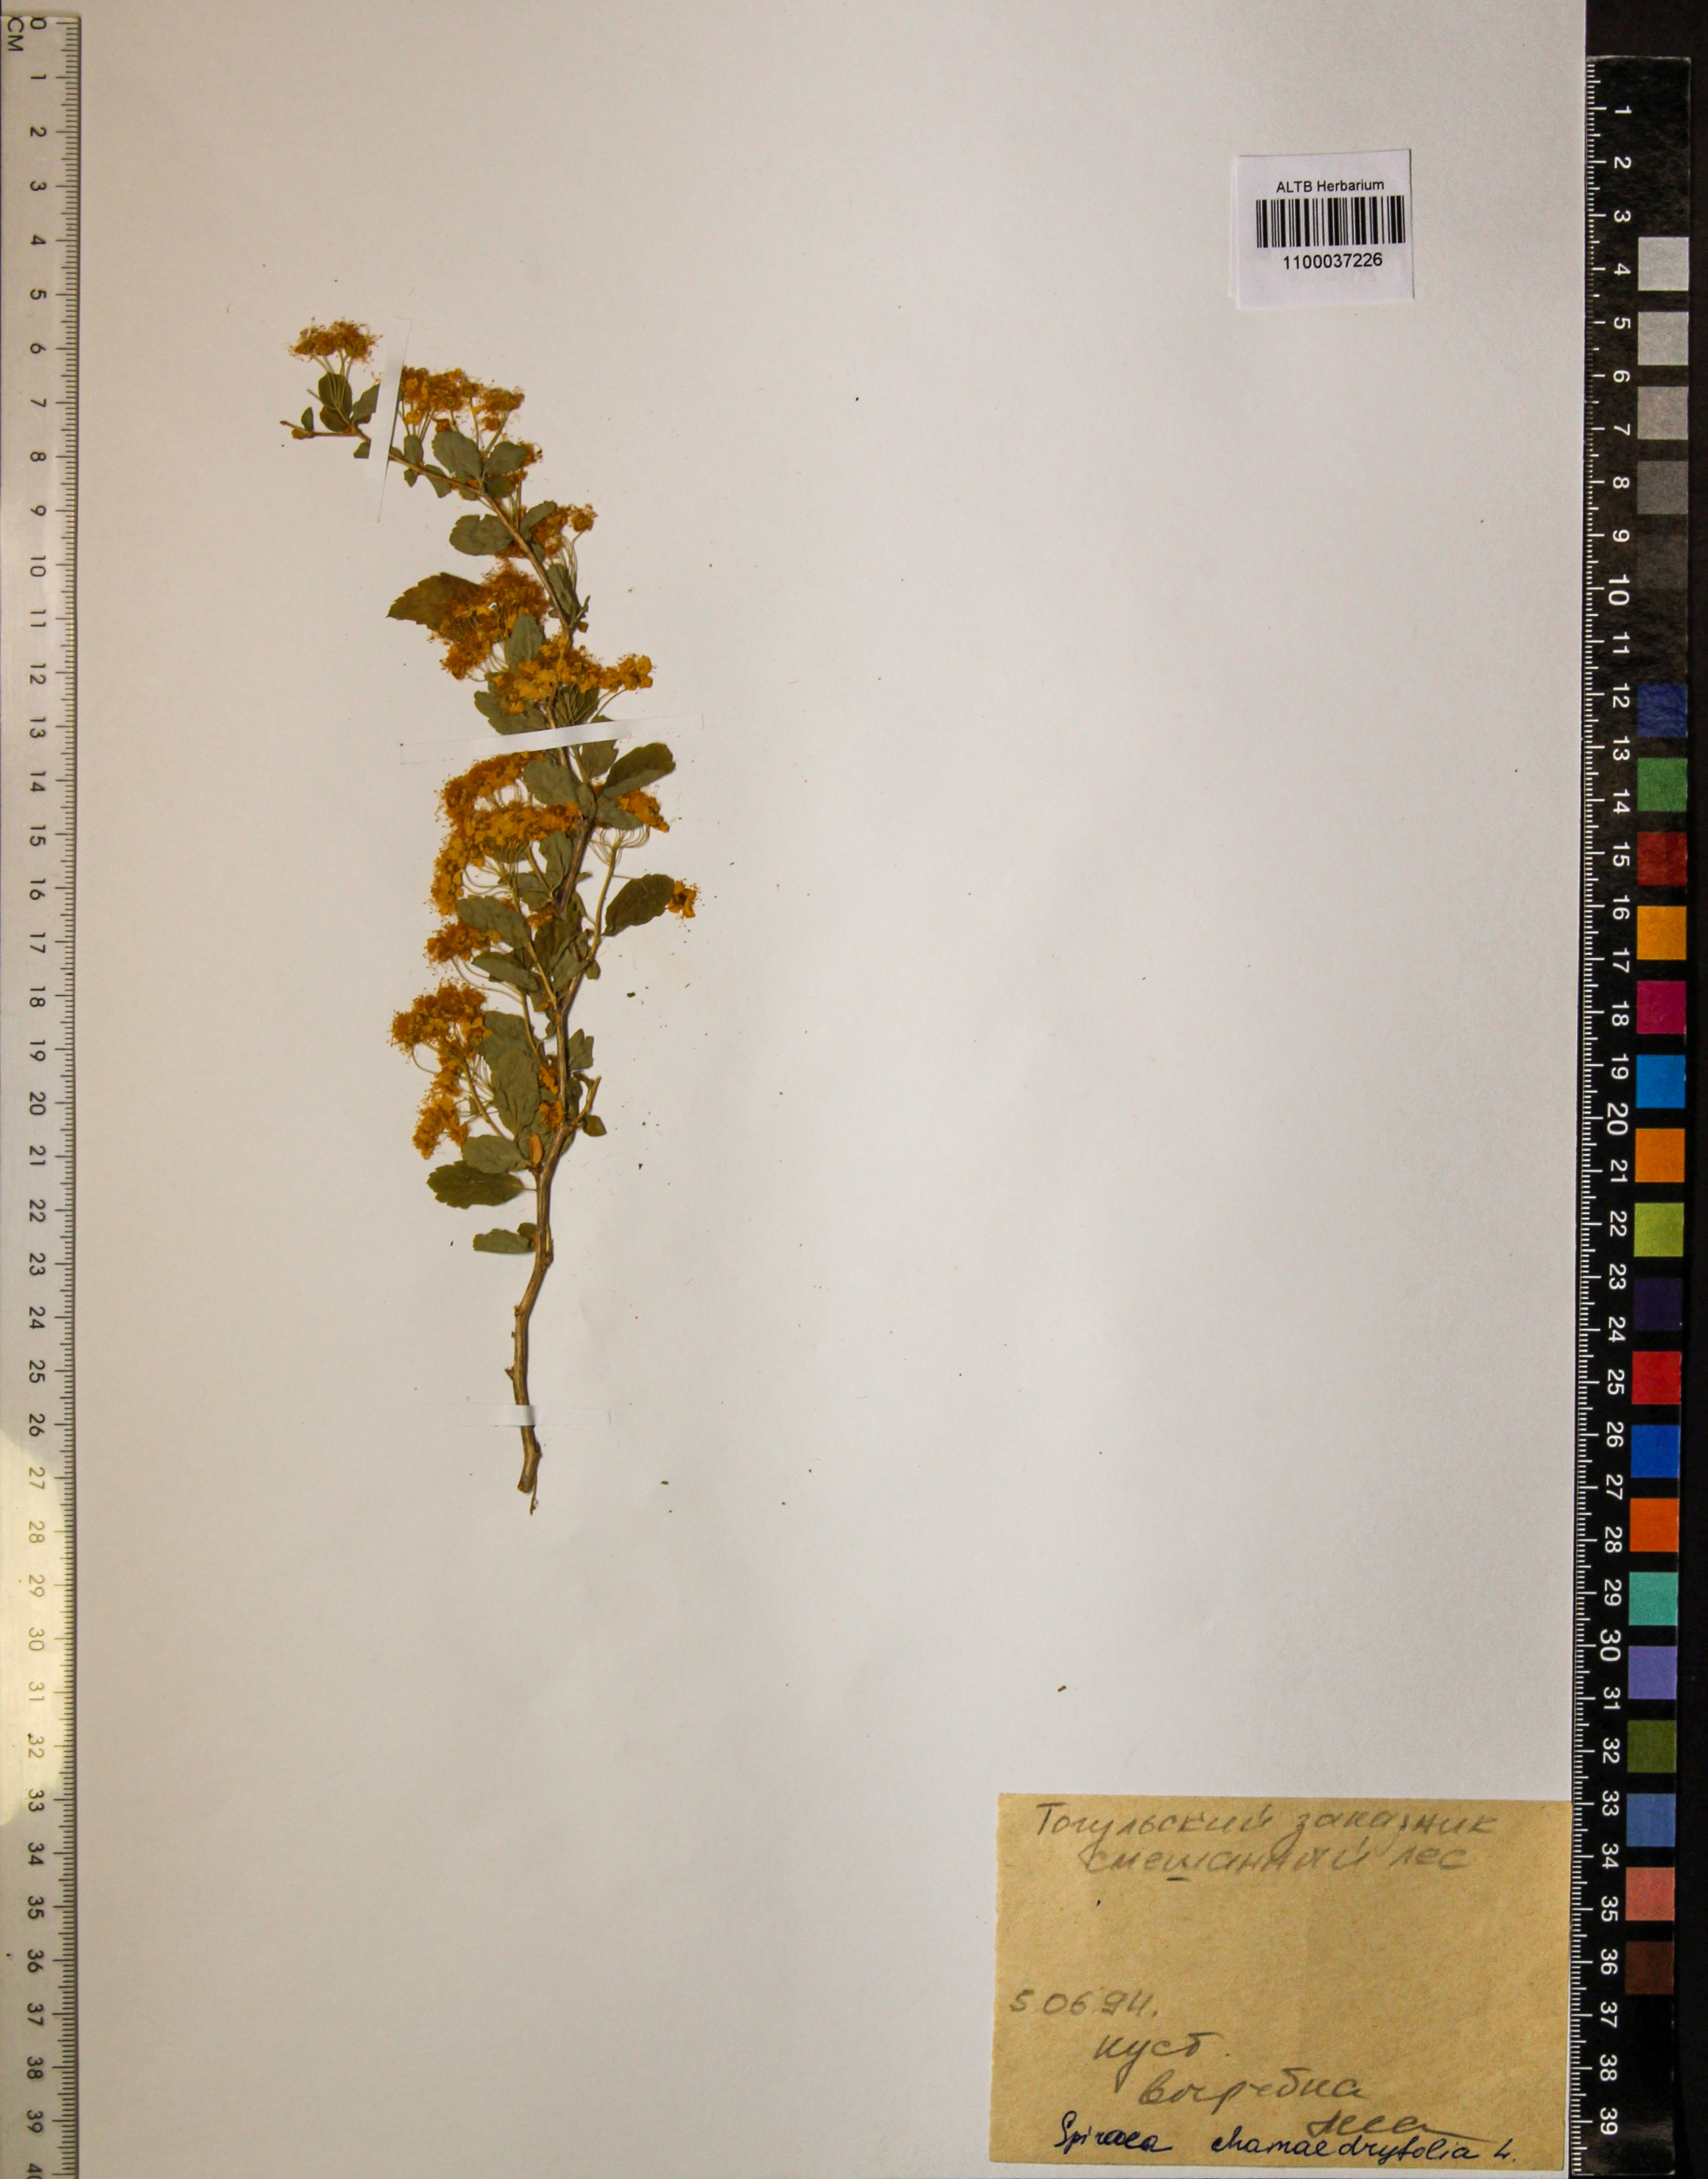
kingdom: Plantae
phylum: Tracheophyta
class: Magnoliopsida
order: Rosales
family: Rosaceae
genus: Spiraea
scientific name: Spiraea chamaedryfolia
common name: Elm-leaved spiraea
